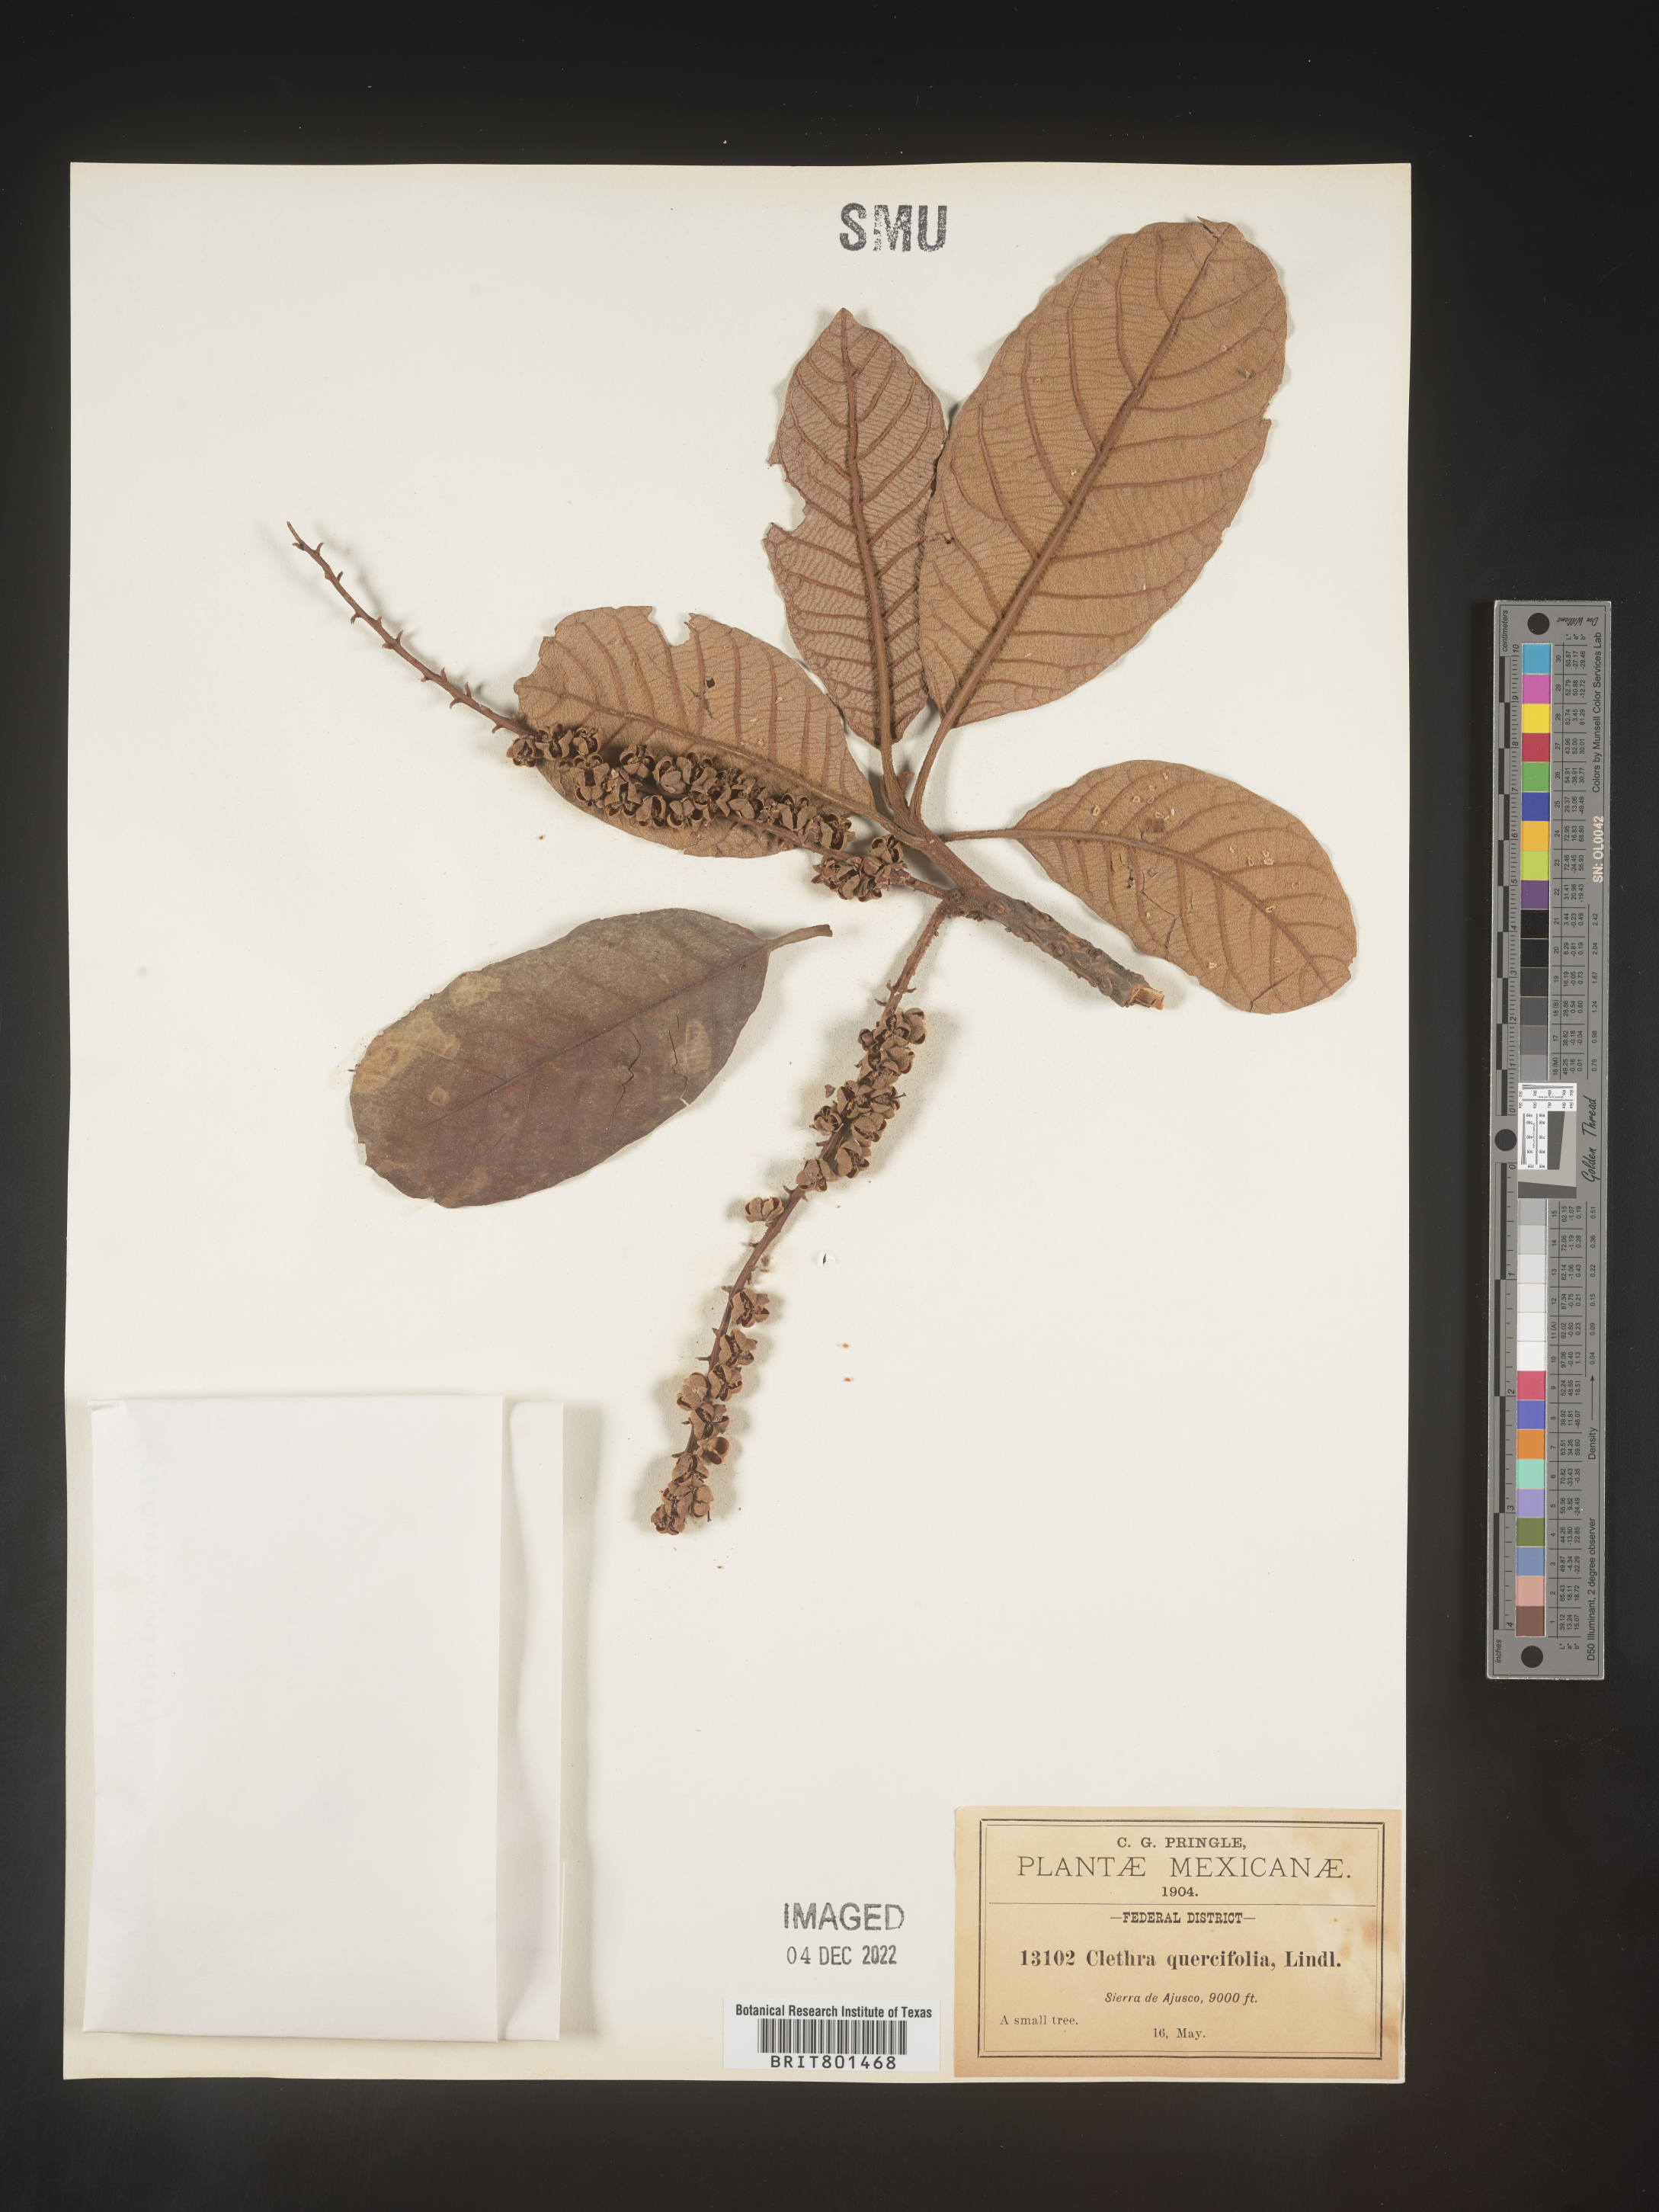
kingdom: Plantae
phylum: Tracheophyta
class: Magnoliopsida
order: Ericales
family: Clethraceae
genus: Clethra
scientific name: Clethra
